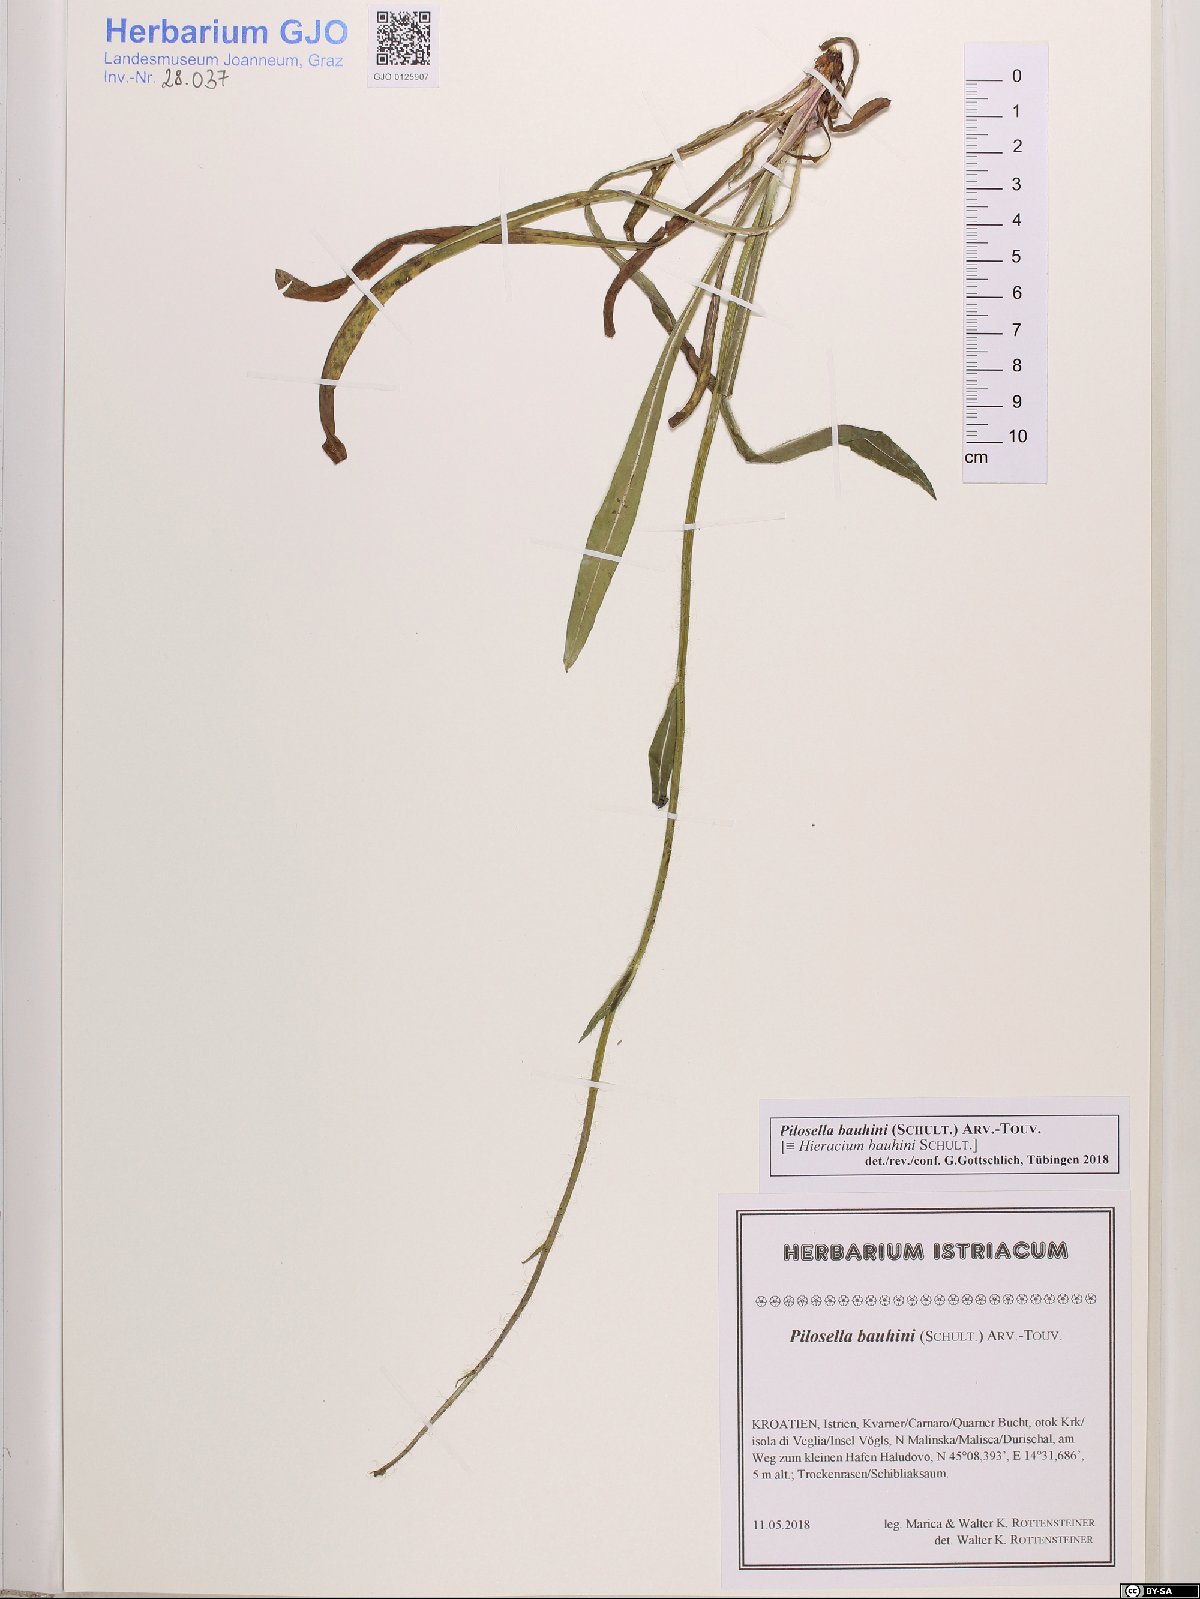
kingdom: Plantae
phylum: Tracheophyta
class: Magnoliopsida
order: Asterales
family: Asteraceae
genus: Pilosella
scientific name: Pilosella bauhini
